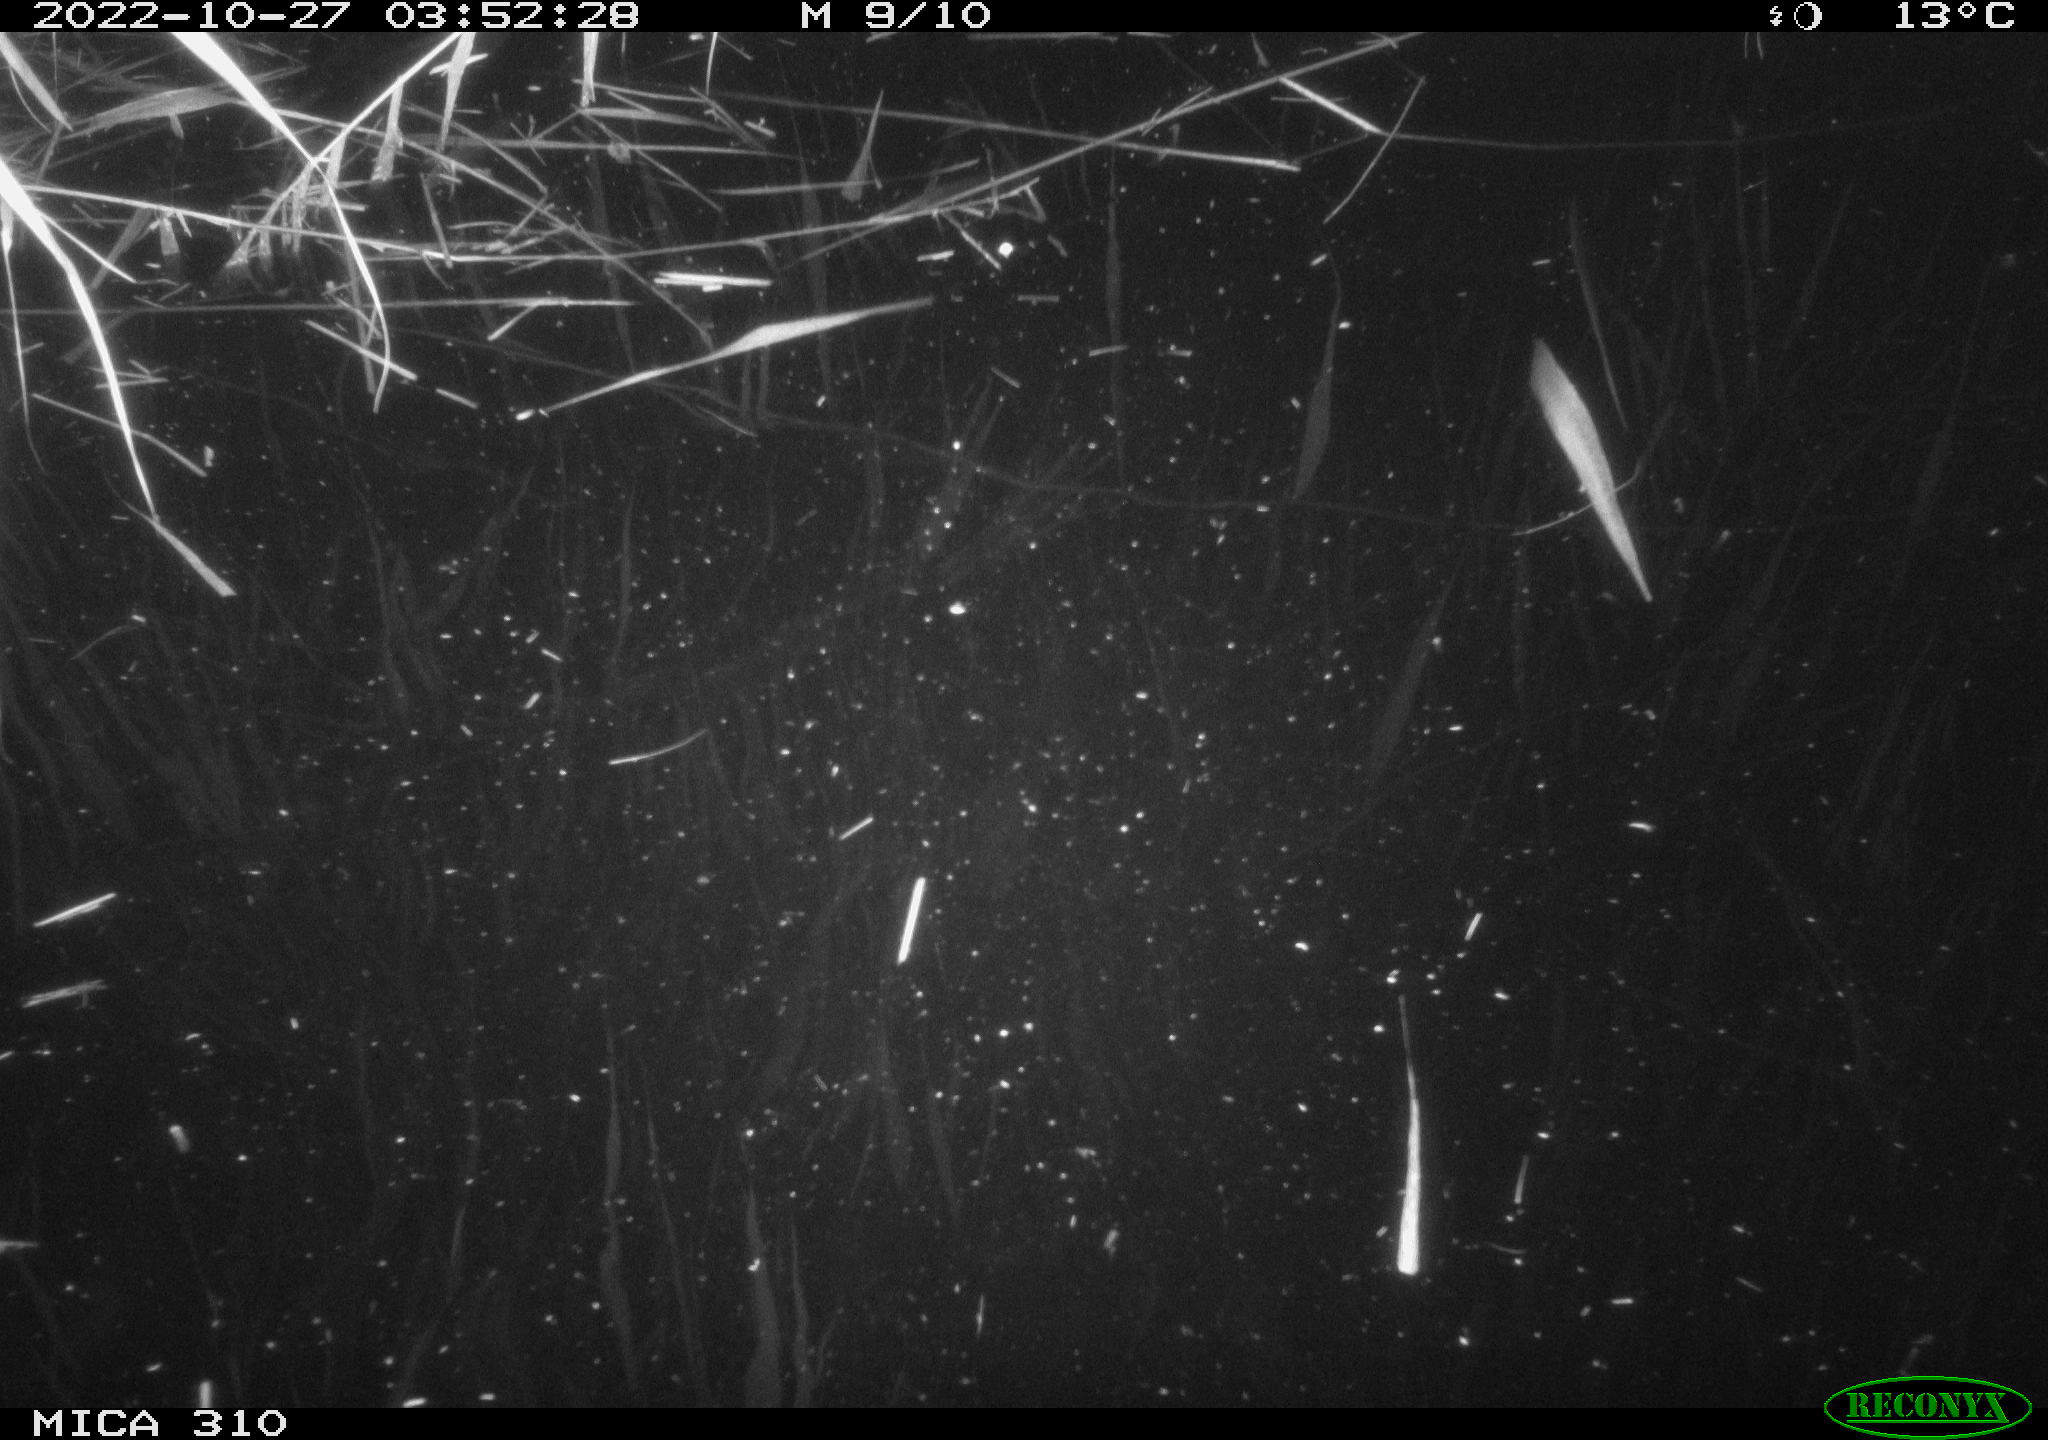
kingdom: Animalia
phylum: Chordata
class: Mammalia
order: Rodentia
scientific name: Rodentia
